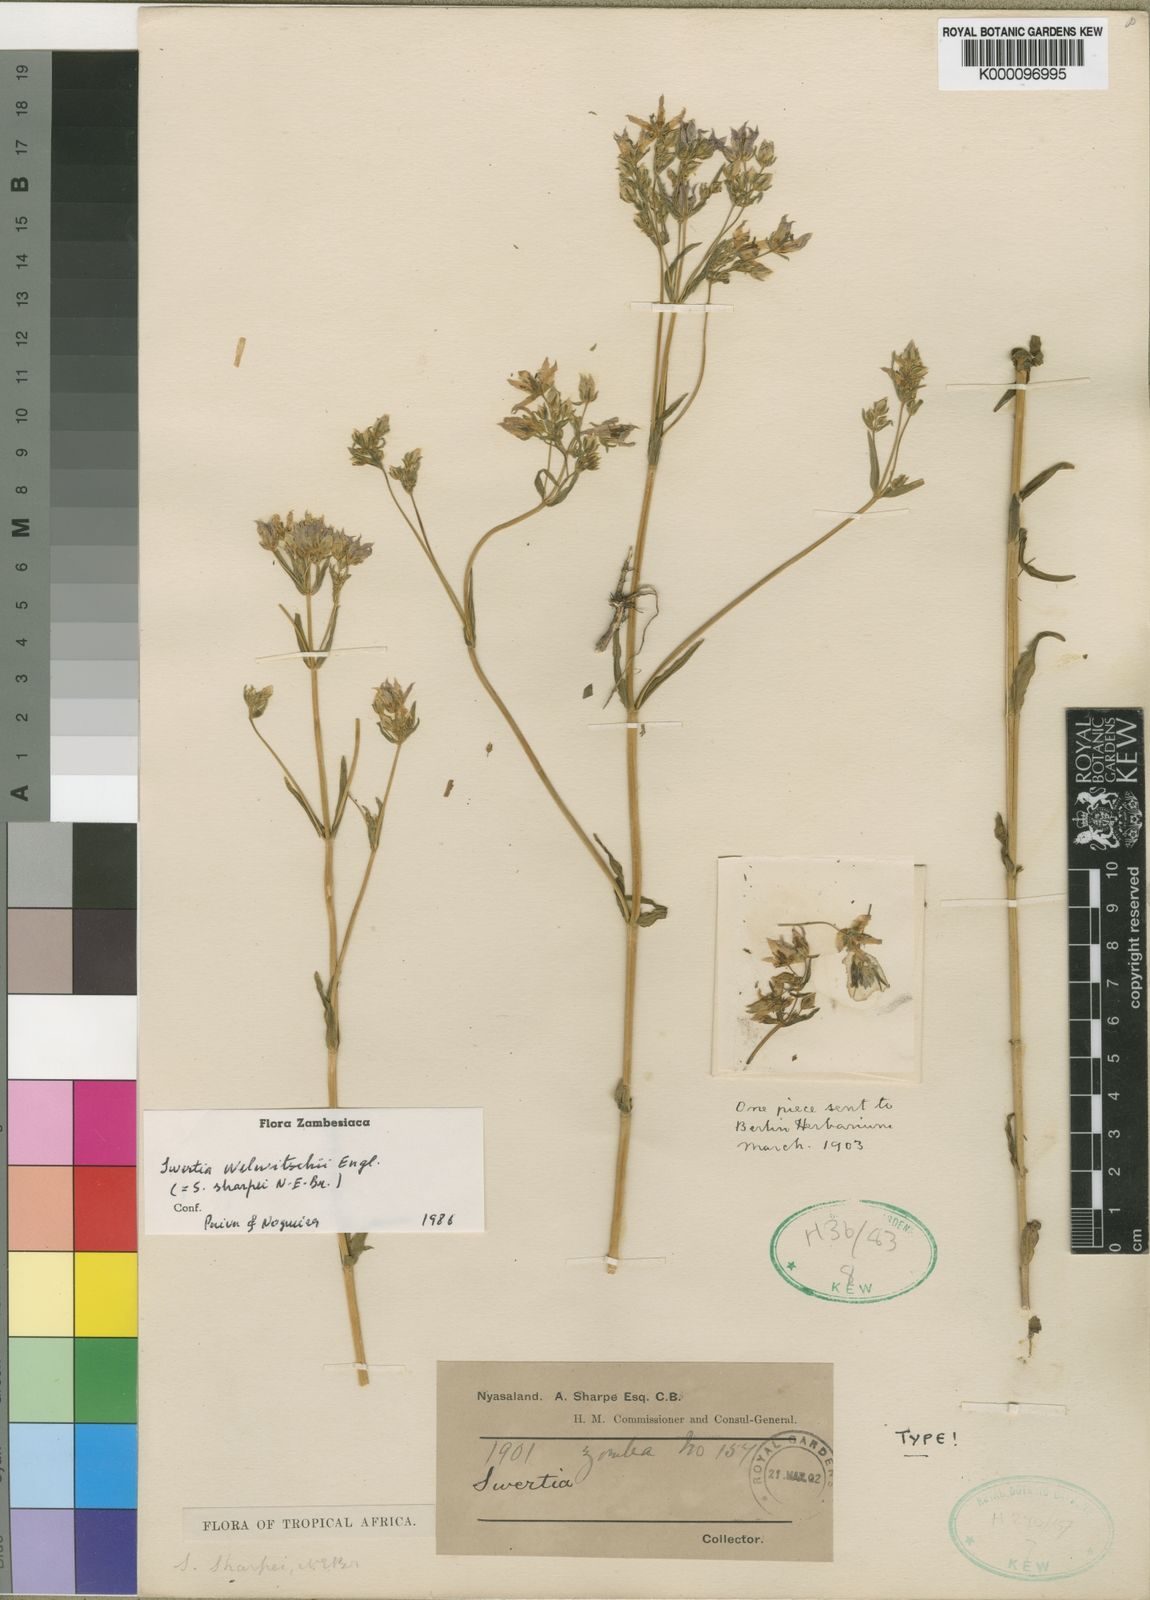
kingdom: Plantae
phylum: Tracheophyta
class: Magnoliopsida
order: Gentianales
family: Gentianaceae
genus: Swertia
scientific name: Swertia welwitschii
